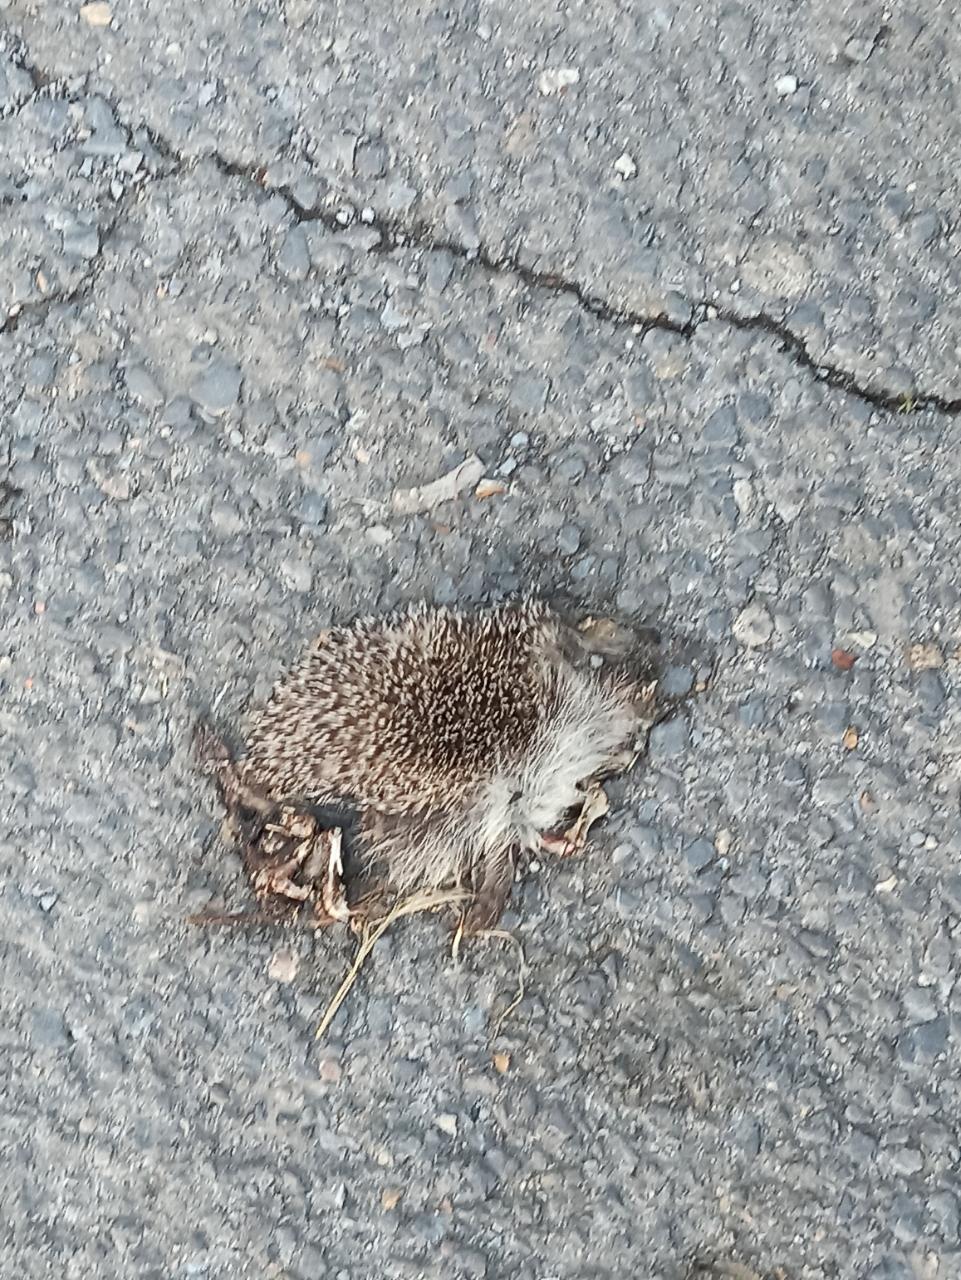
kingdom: Animalia
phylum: Chordata
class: Mammalia
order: Erinaceomorpha
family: Erinaceidae
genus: Erinaceus
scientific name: Erinaceus
